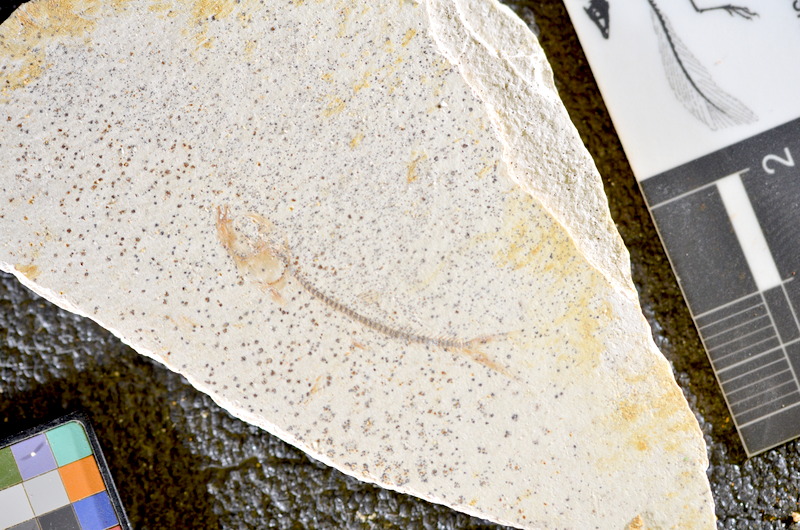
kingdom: Animalia
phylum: Chordata
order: Salmoniformes
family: Orthogonikleithridae
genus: Orthogonikleithrus
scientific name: Orthogonikleithrus hoelli
